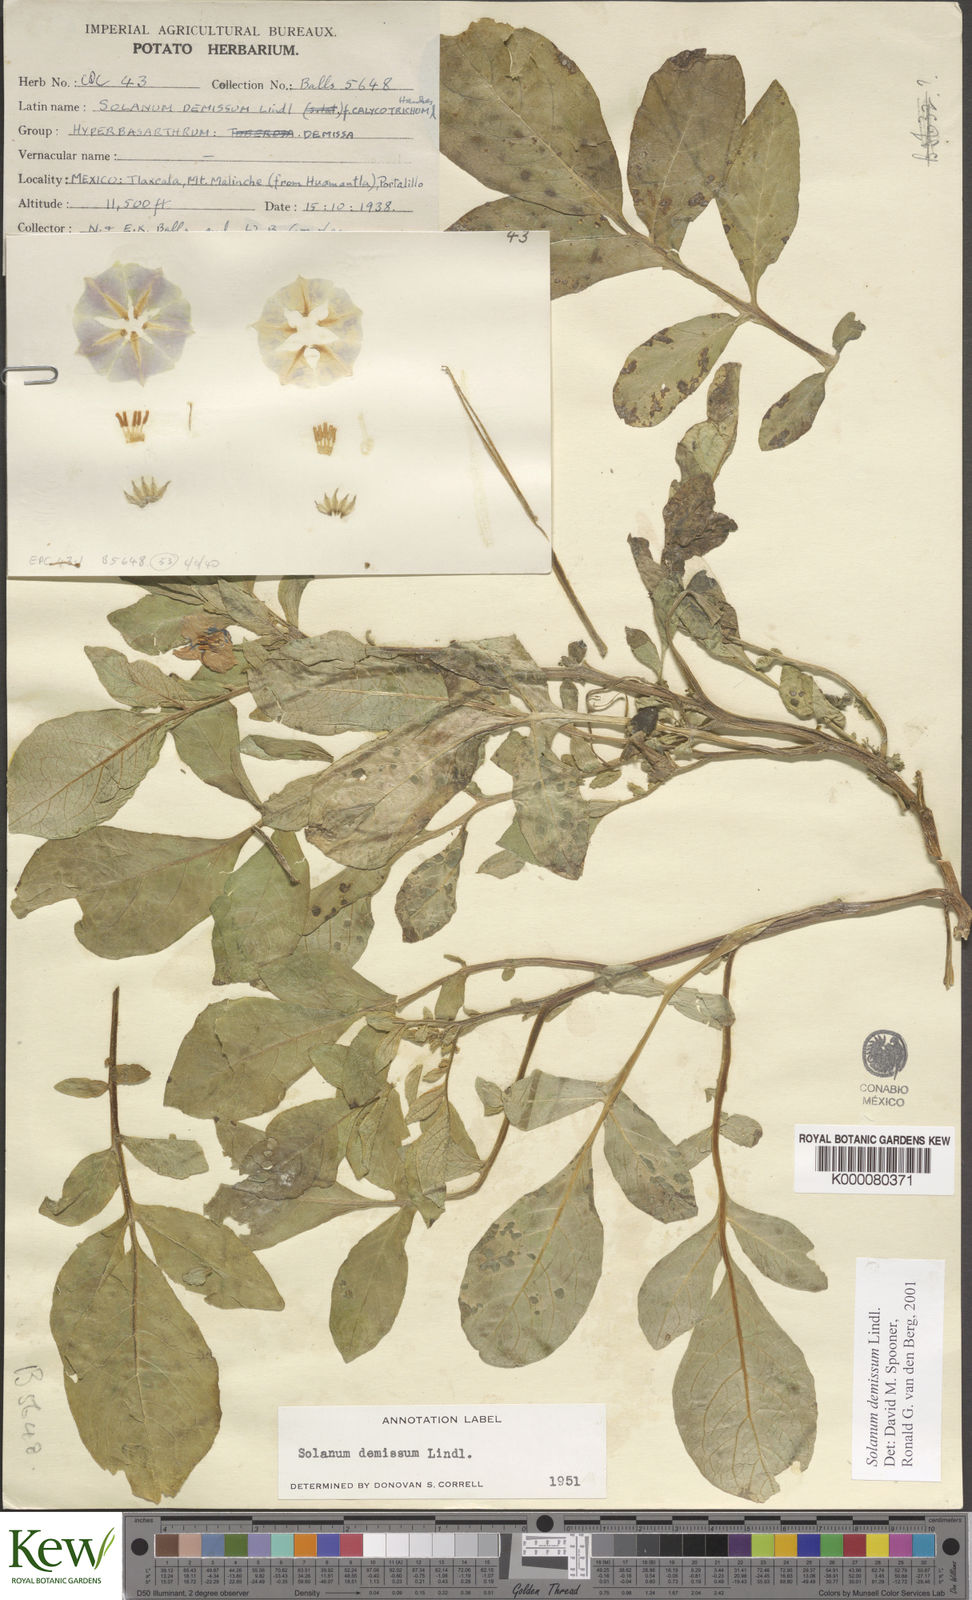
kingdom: Plantae
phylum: Tracheophyta
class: Magnoliopsida
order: Solanales
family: Solanaceae
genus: Solanum
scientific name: Solanum demissum
